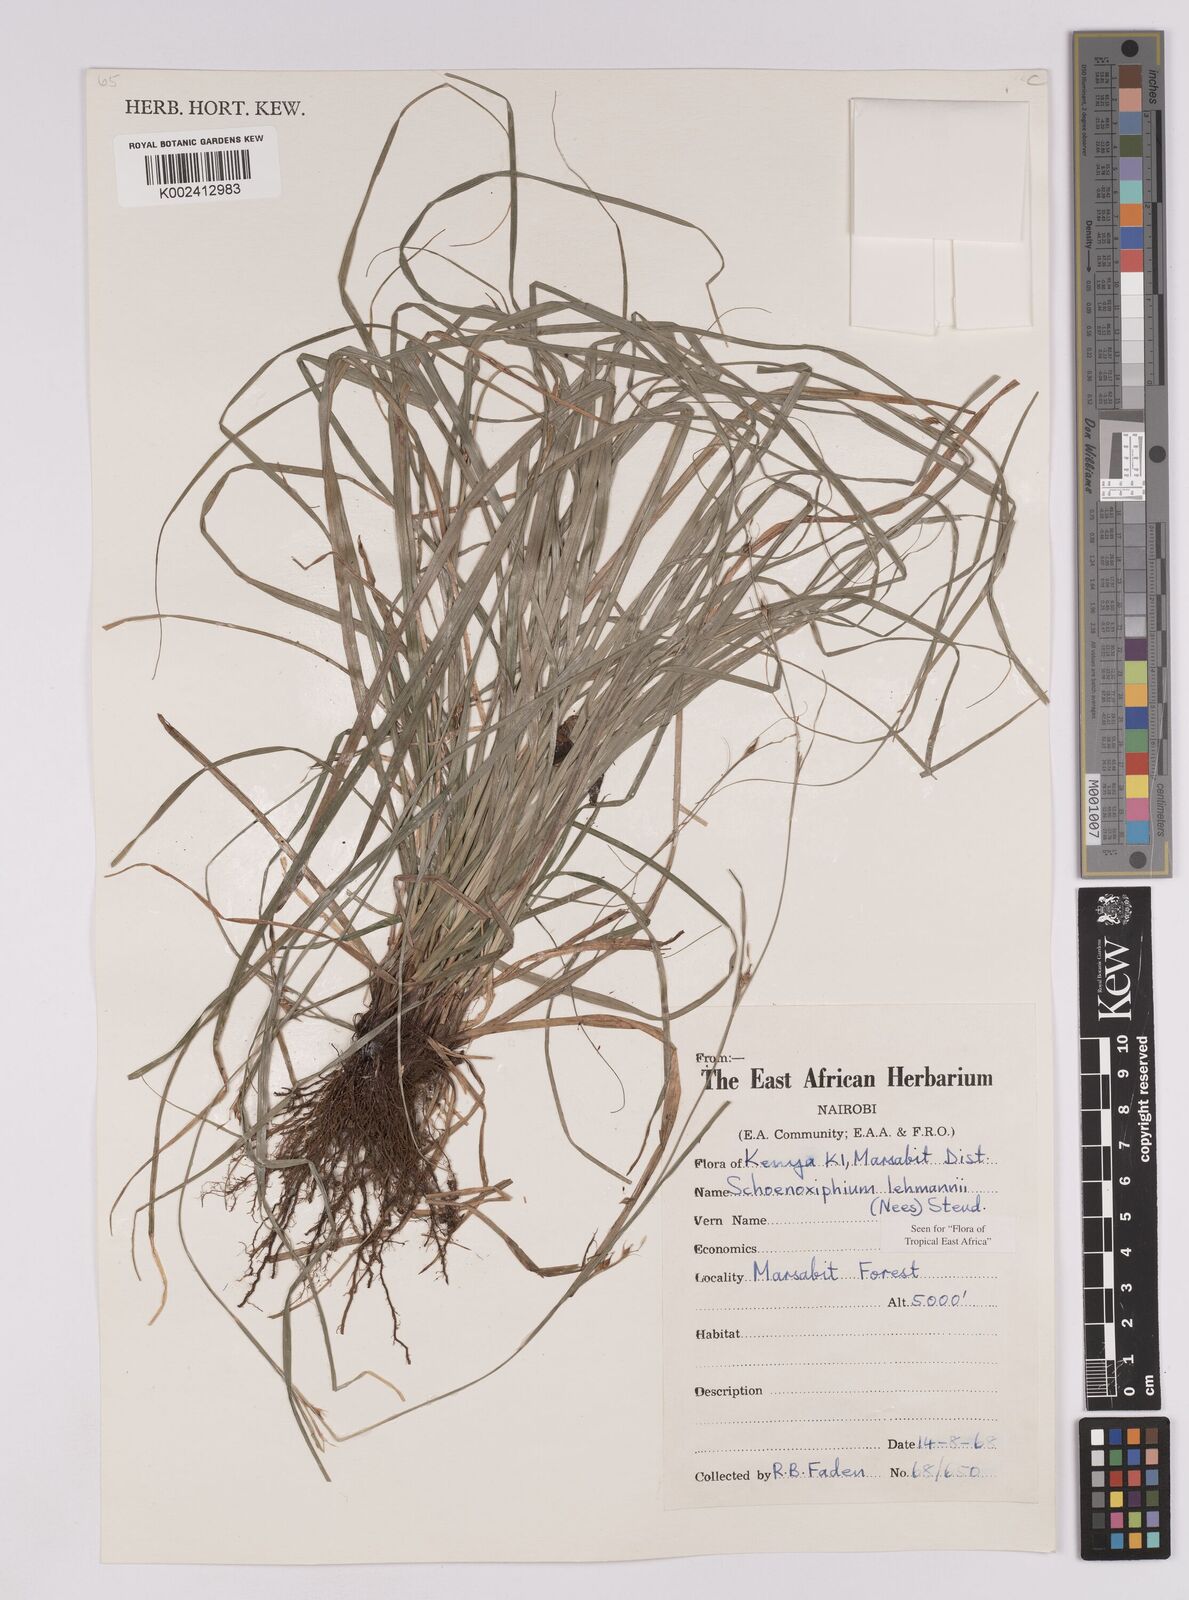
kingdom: Plantae
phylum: Tracheophyta
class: Liliopsida
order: Poales
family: Cyperaceae
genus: Carex
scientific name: Carex uhligii
